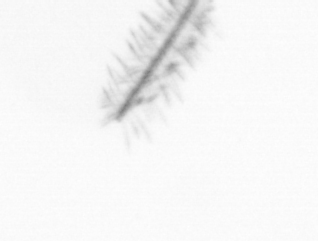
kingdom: Chromista
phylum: Ochrophyta
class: Bacillariophyceae
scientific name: Bacillariophyceae
